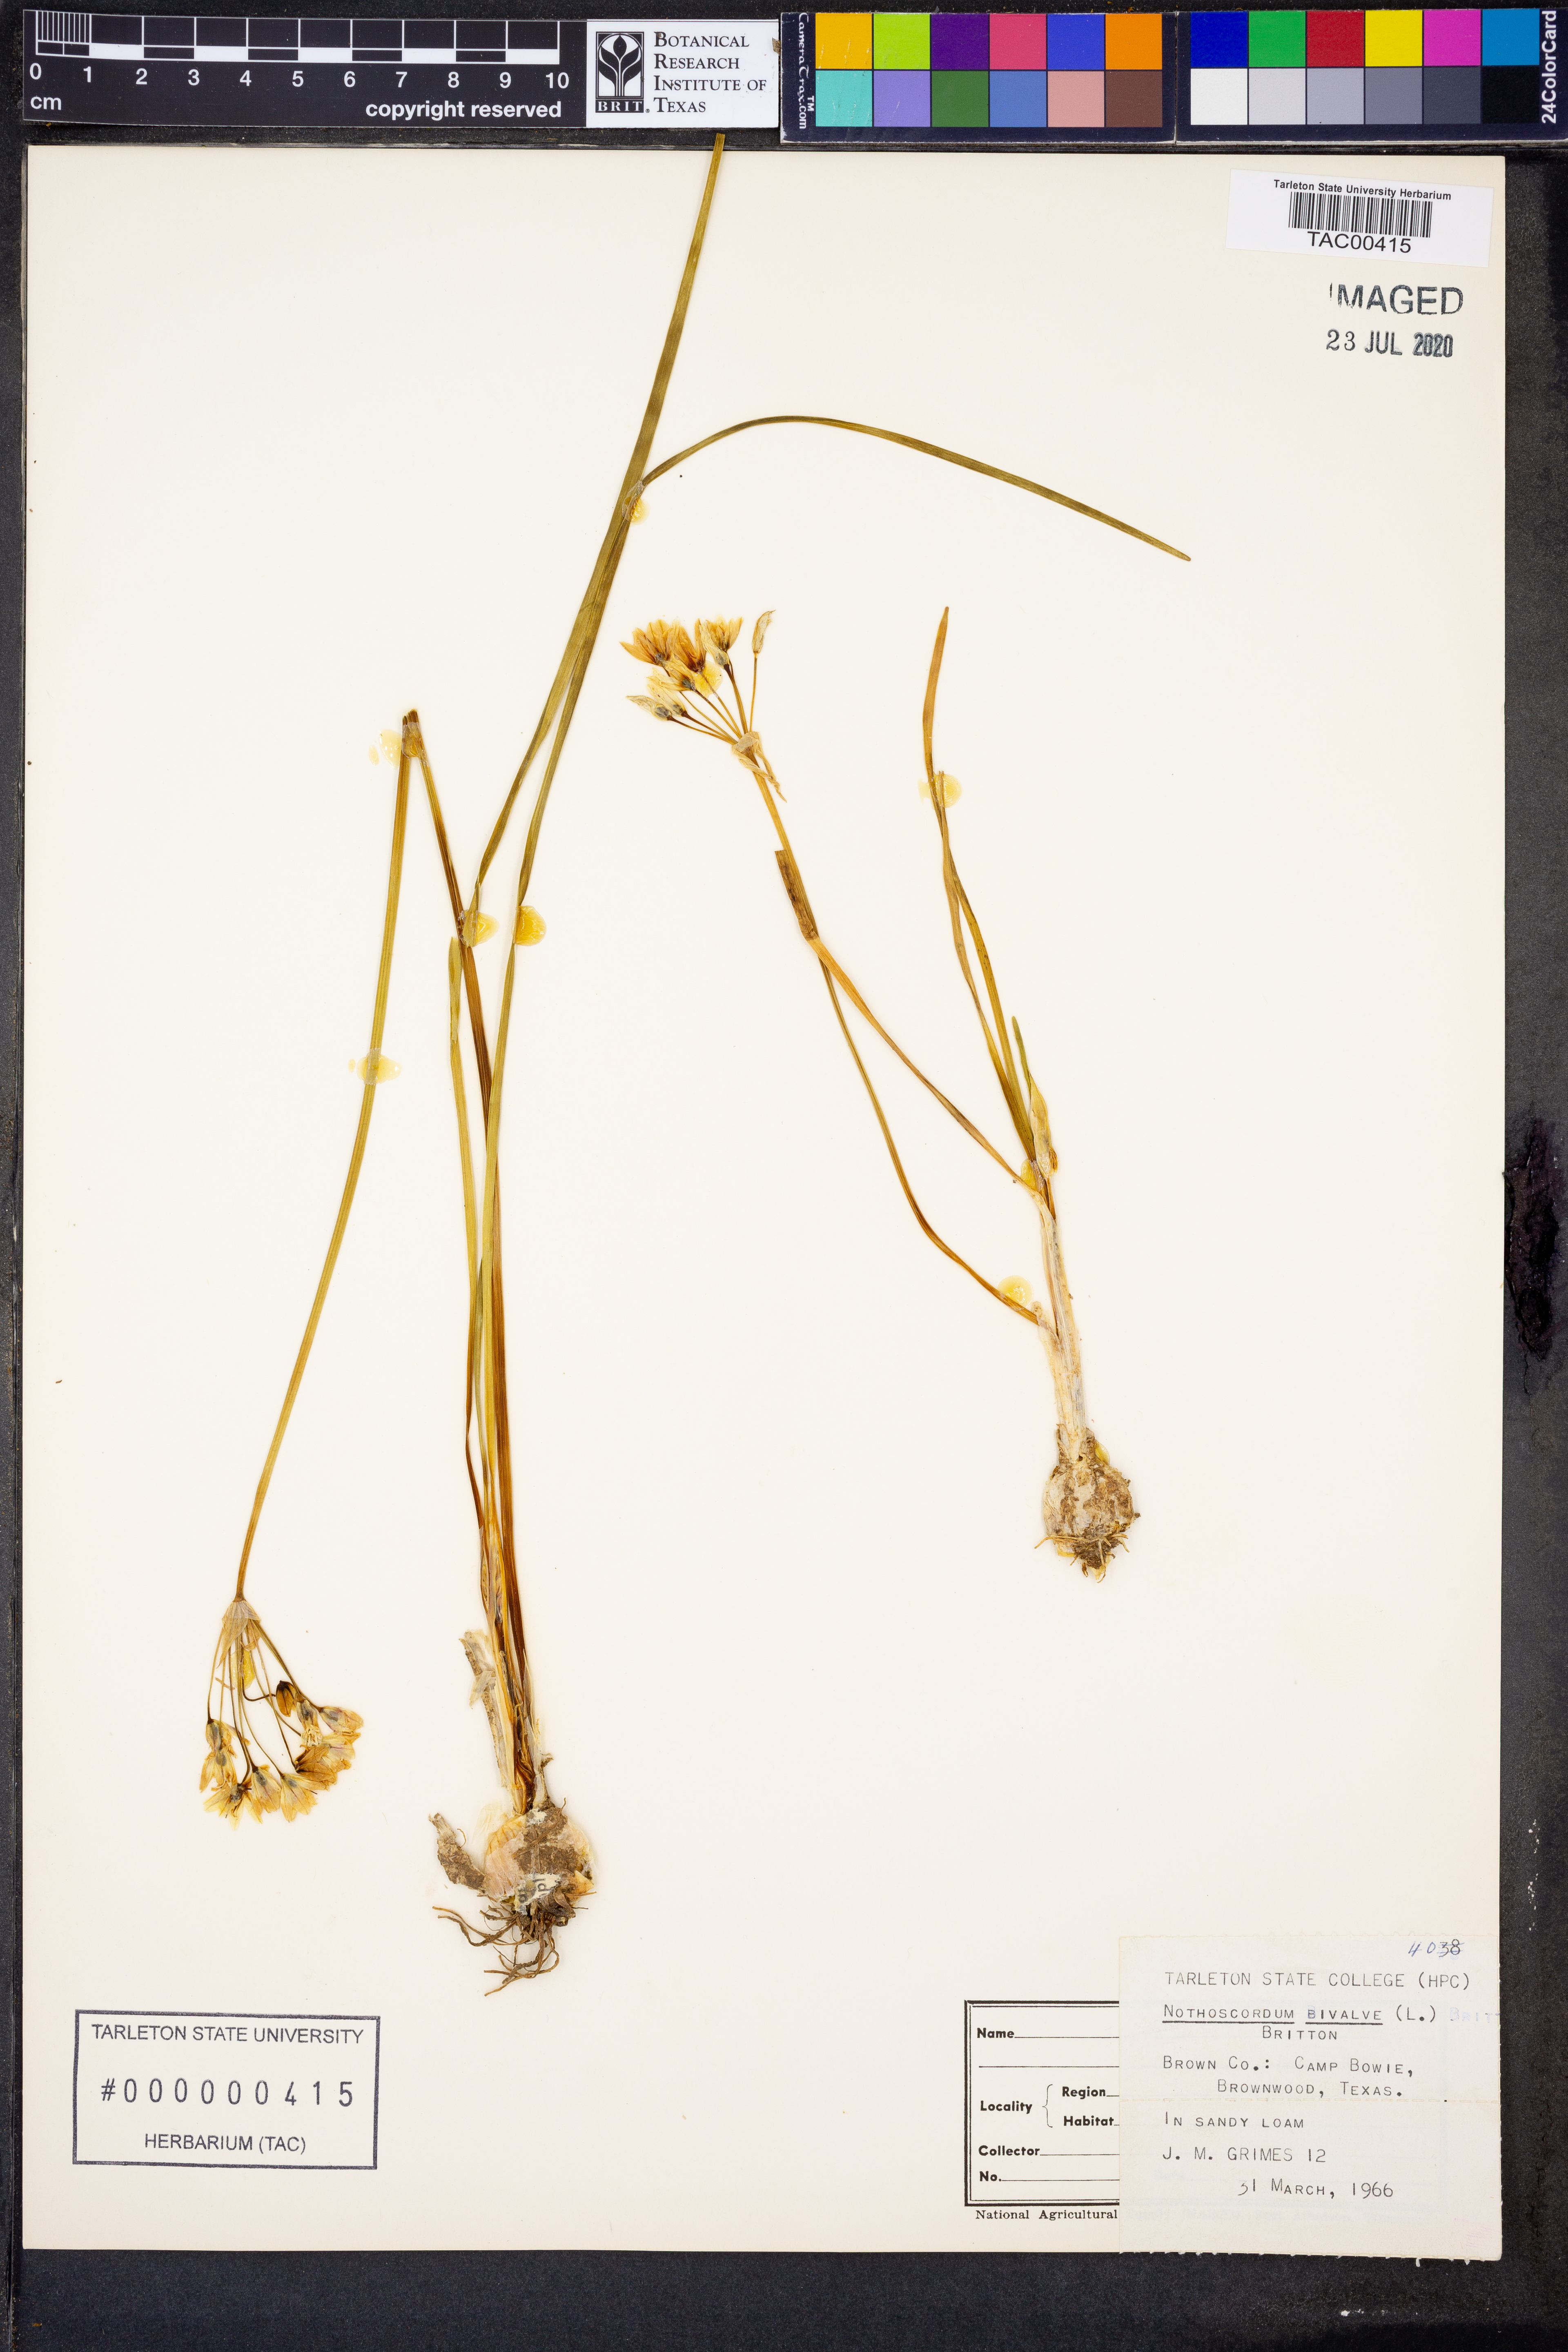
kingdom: Plantae
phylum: Tracheophyta
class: Liliopsida
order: Asparagales
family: Amaryllidaceae
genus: Nothoscordum
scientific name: Nothoscordum bivalve
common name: Crow-poison
